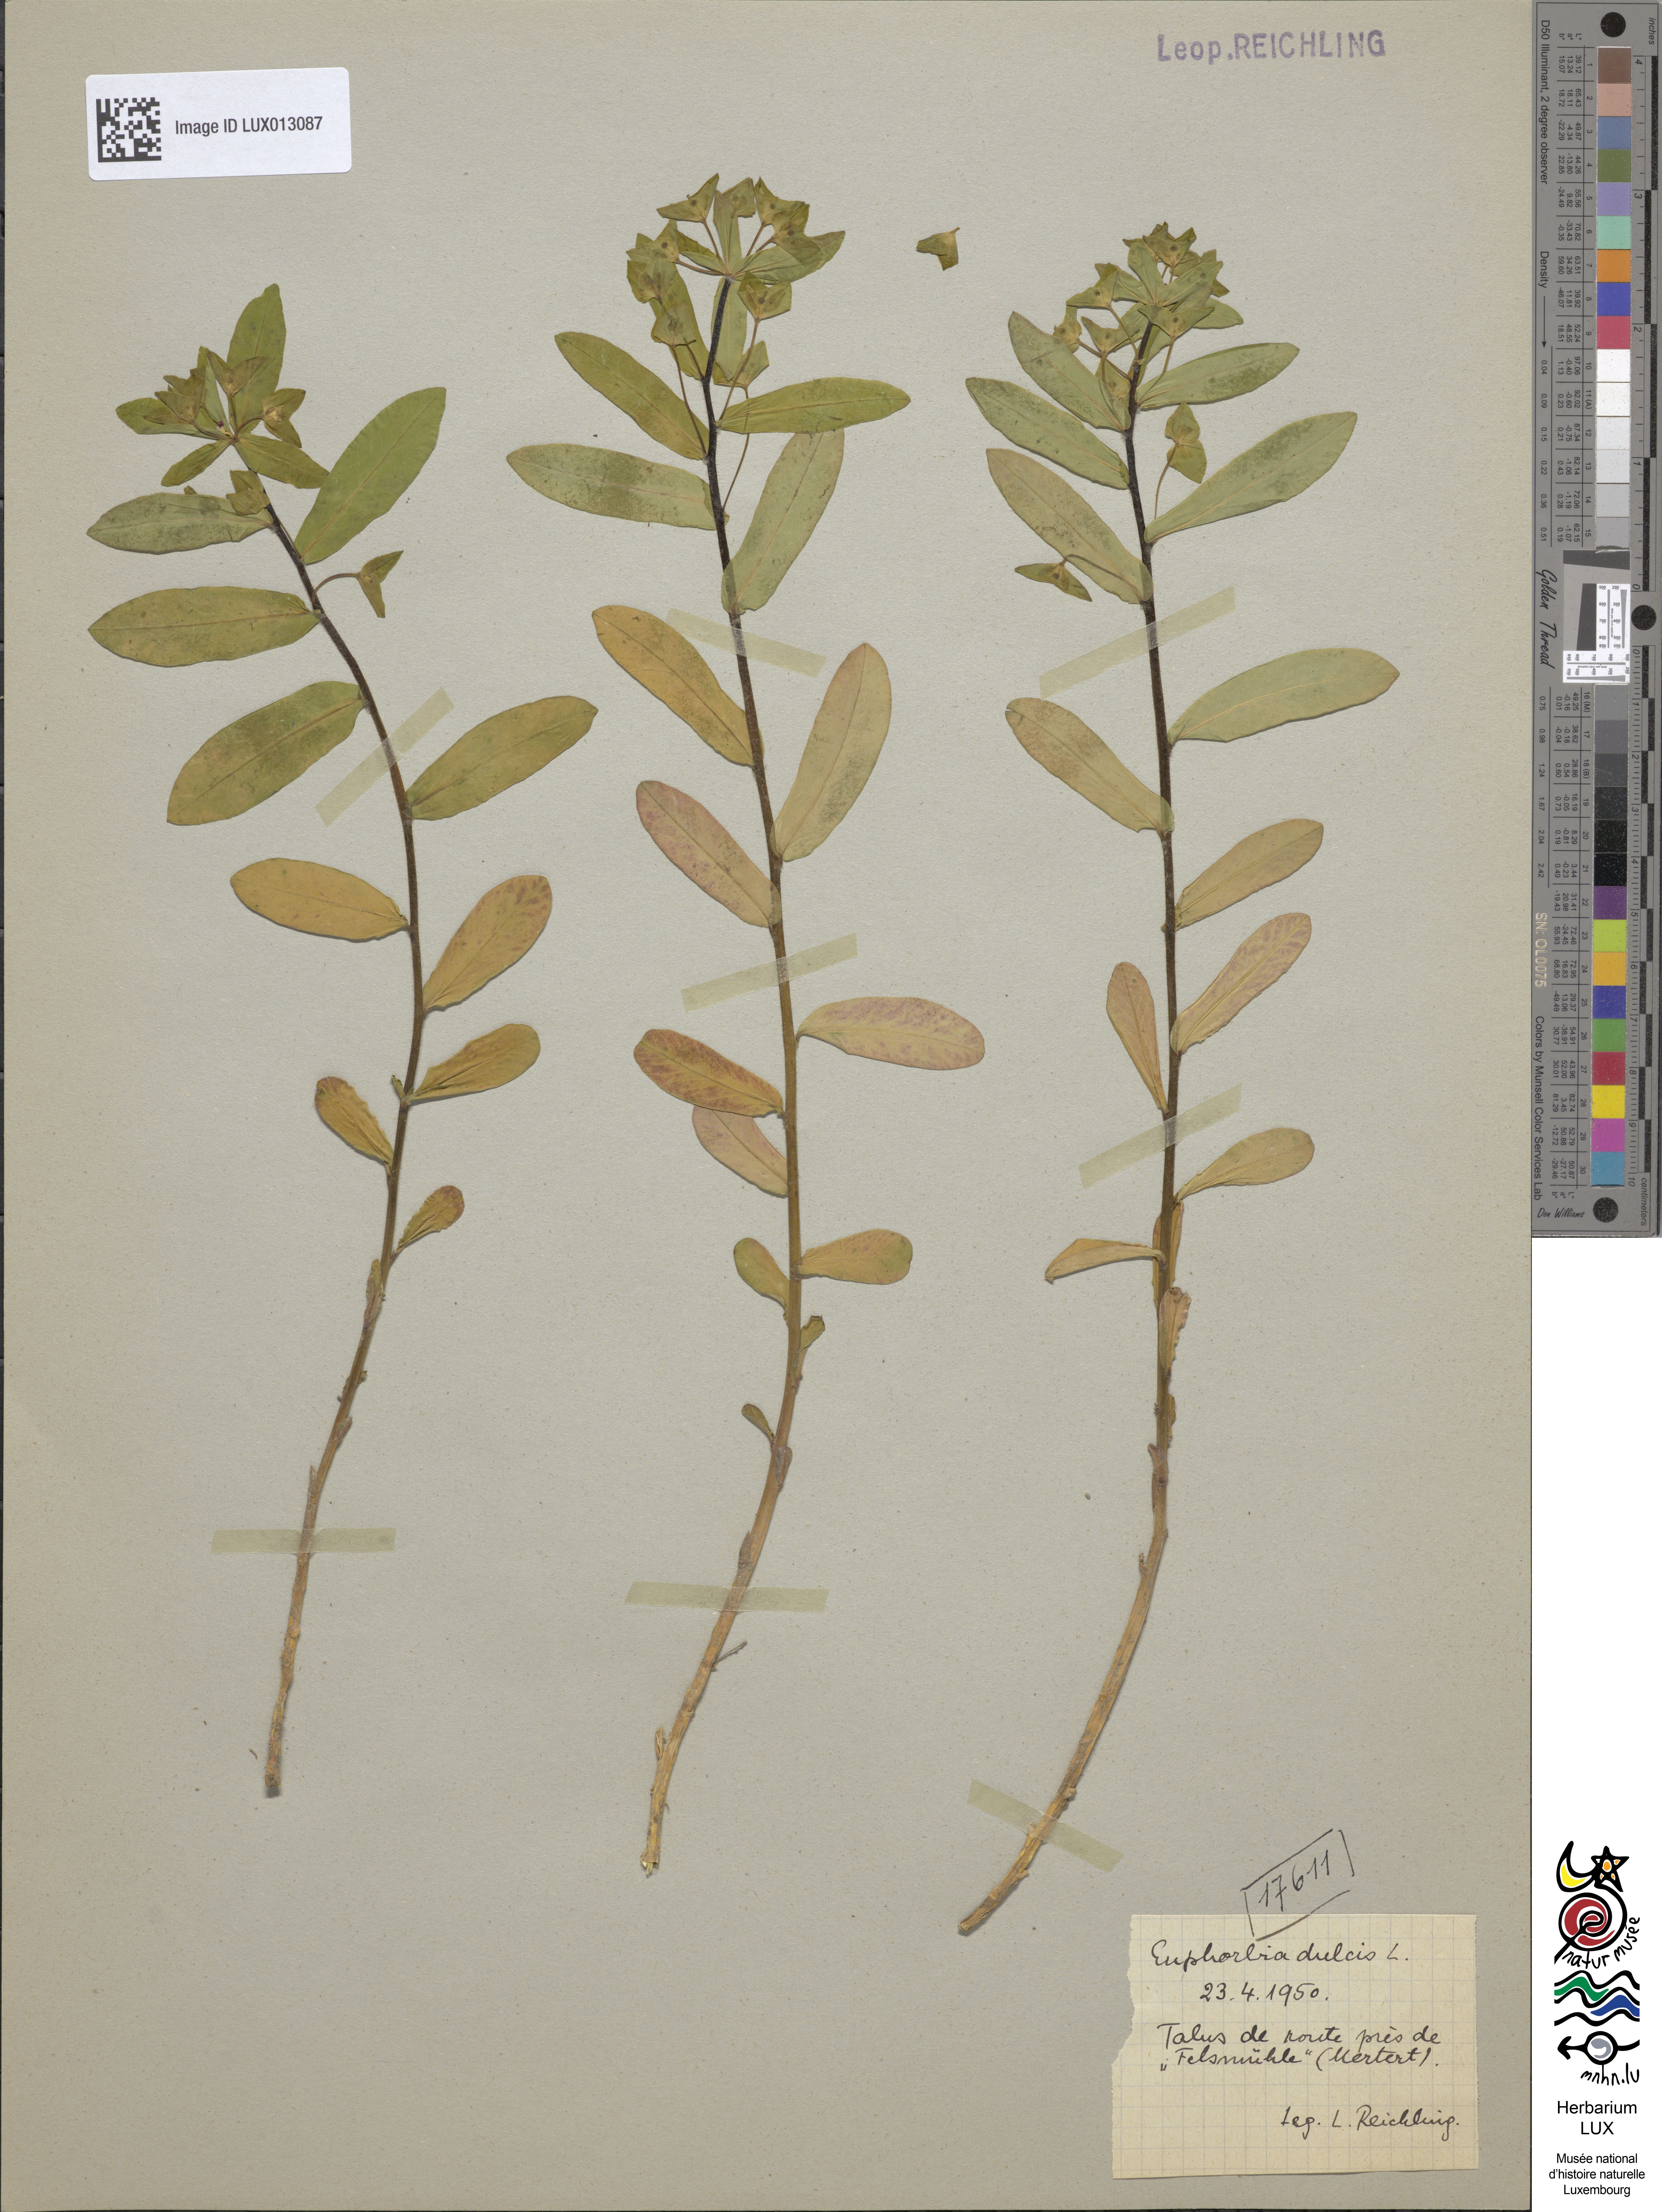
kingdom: Plantae
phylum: Tracheophyta
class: Magnoliopsida
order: Malpighiales
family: Euphorbiaceae
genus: Euphorbia
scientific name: Euphorbia dulcis
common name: Sweet spurge
